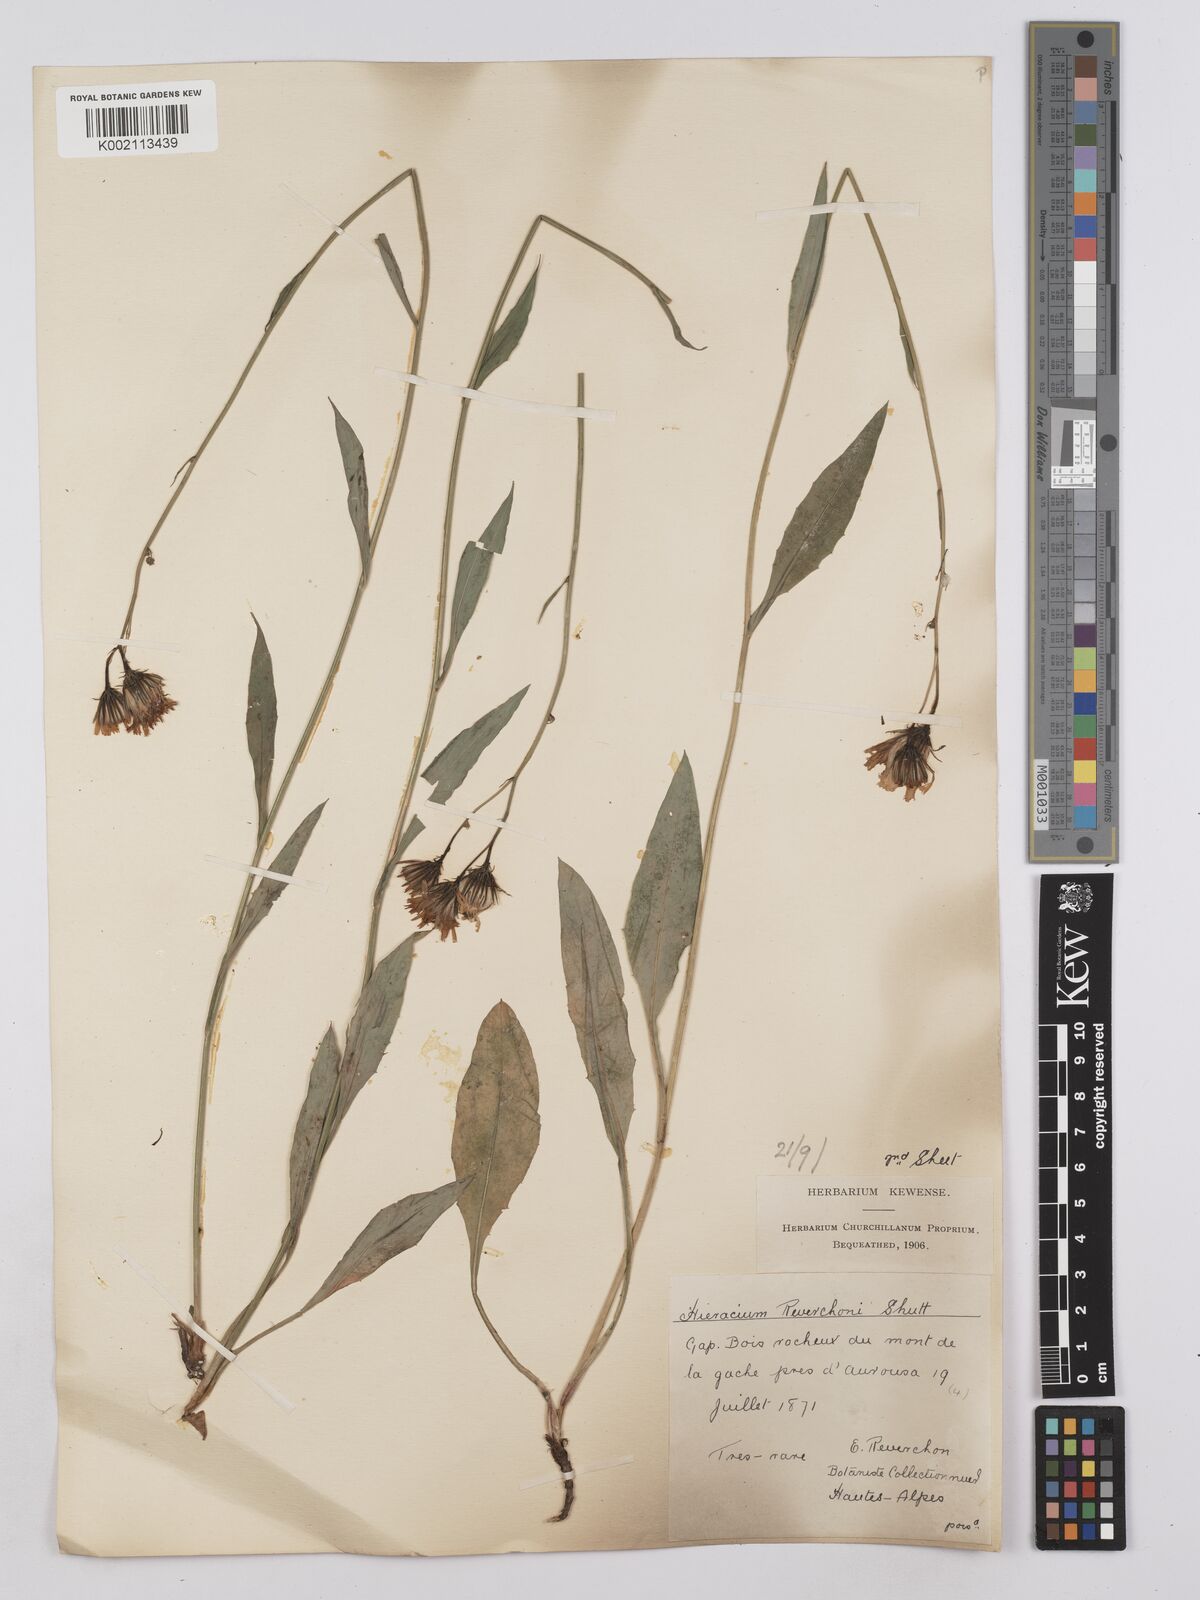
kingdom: Plantae
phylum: Tracheophyta
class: Magnoliopsida
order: Asterales
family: Asteraceae
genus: Hieracium
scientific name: Hieracium neyranum
